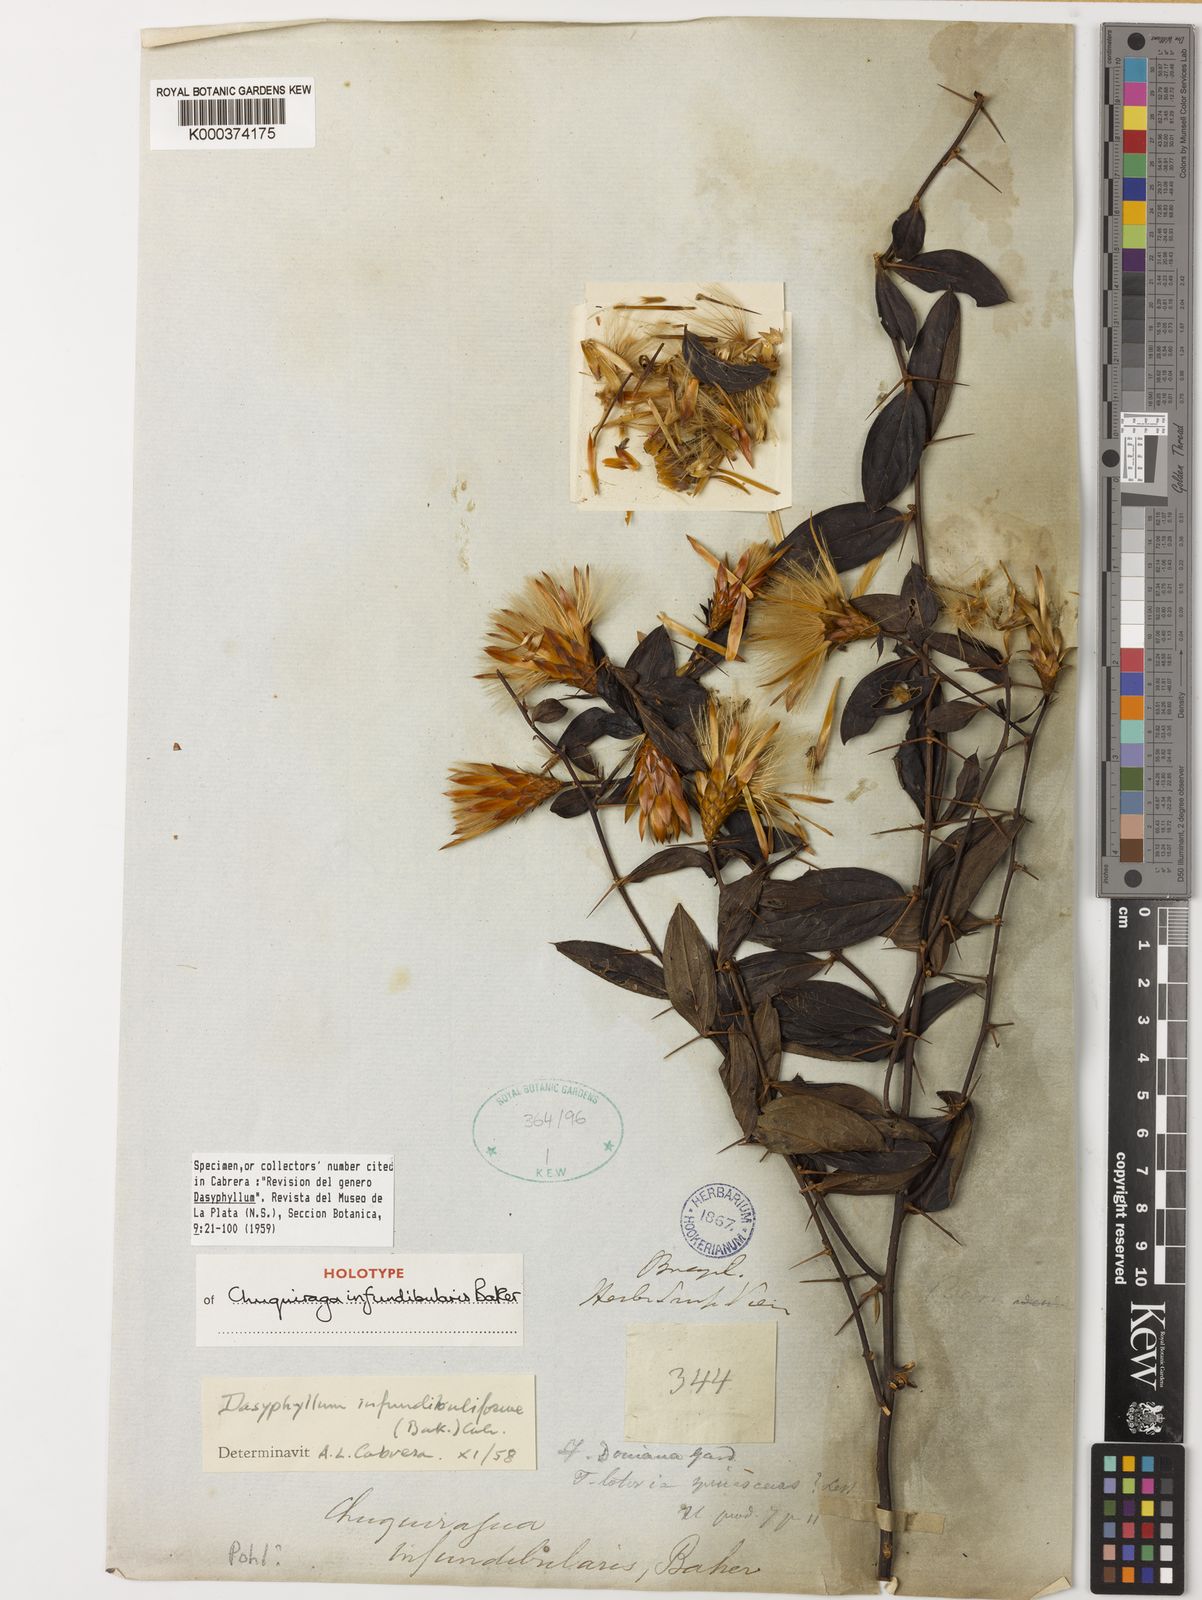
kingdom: Plantae
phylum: Tracheophyta
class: Magnoliopsida
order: Asterales
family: Asteraceae
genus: Dasyphyllum
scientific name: Dasyphyllum donianum
